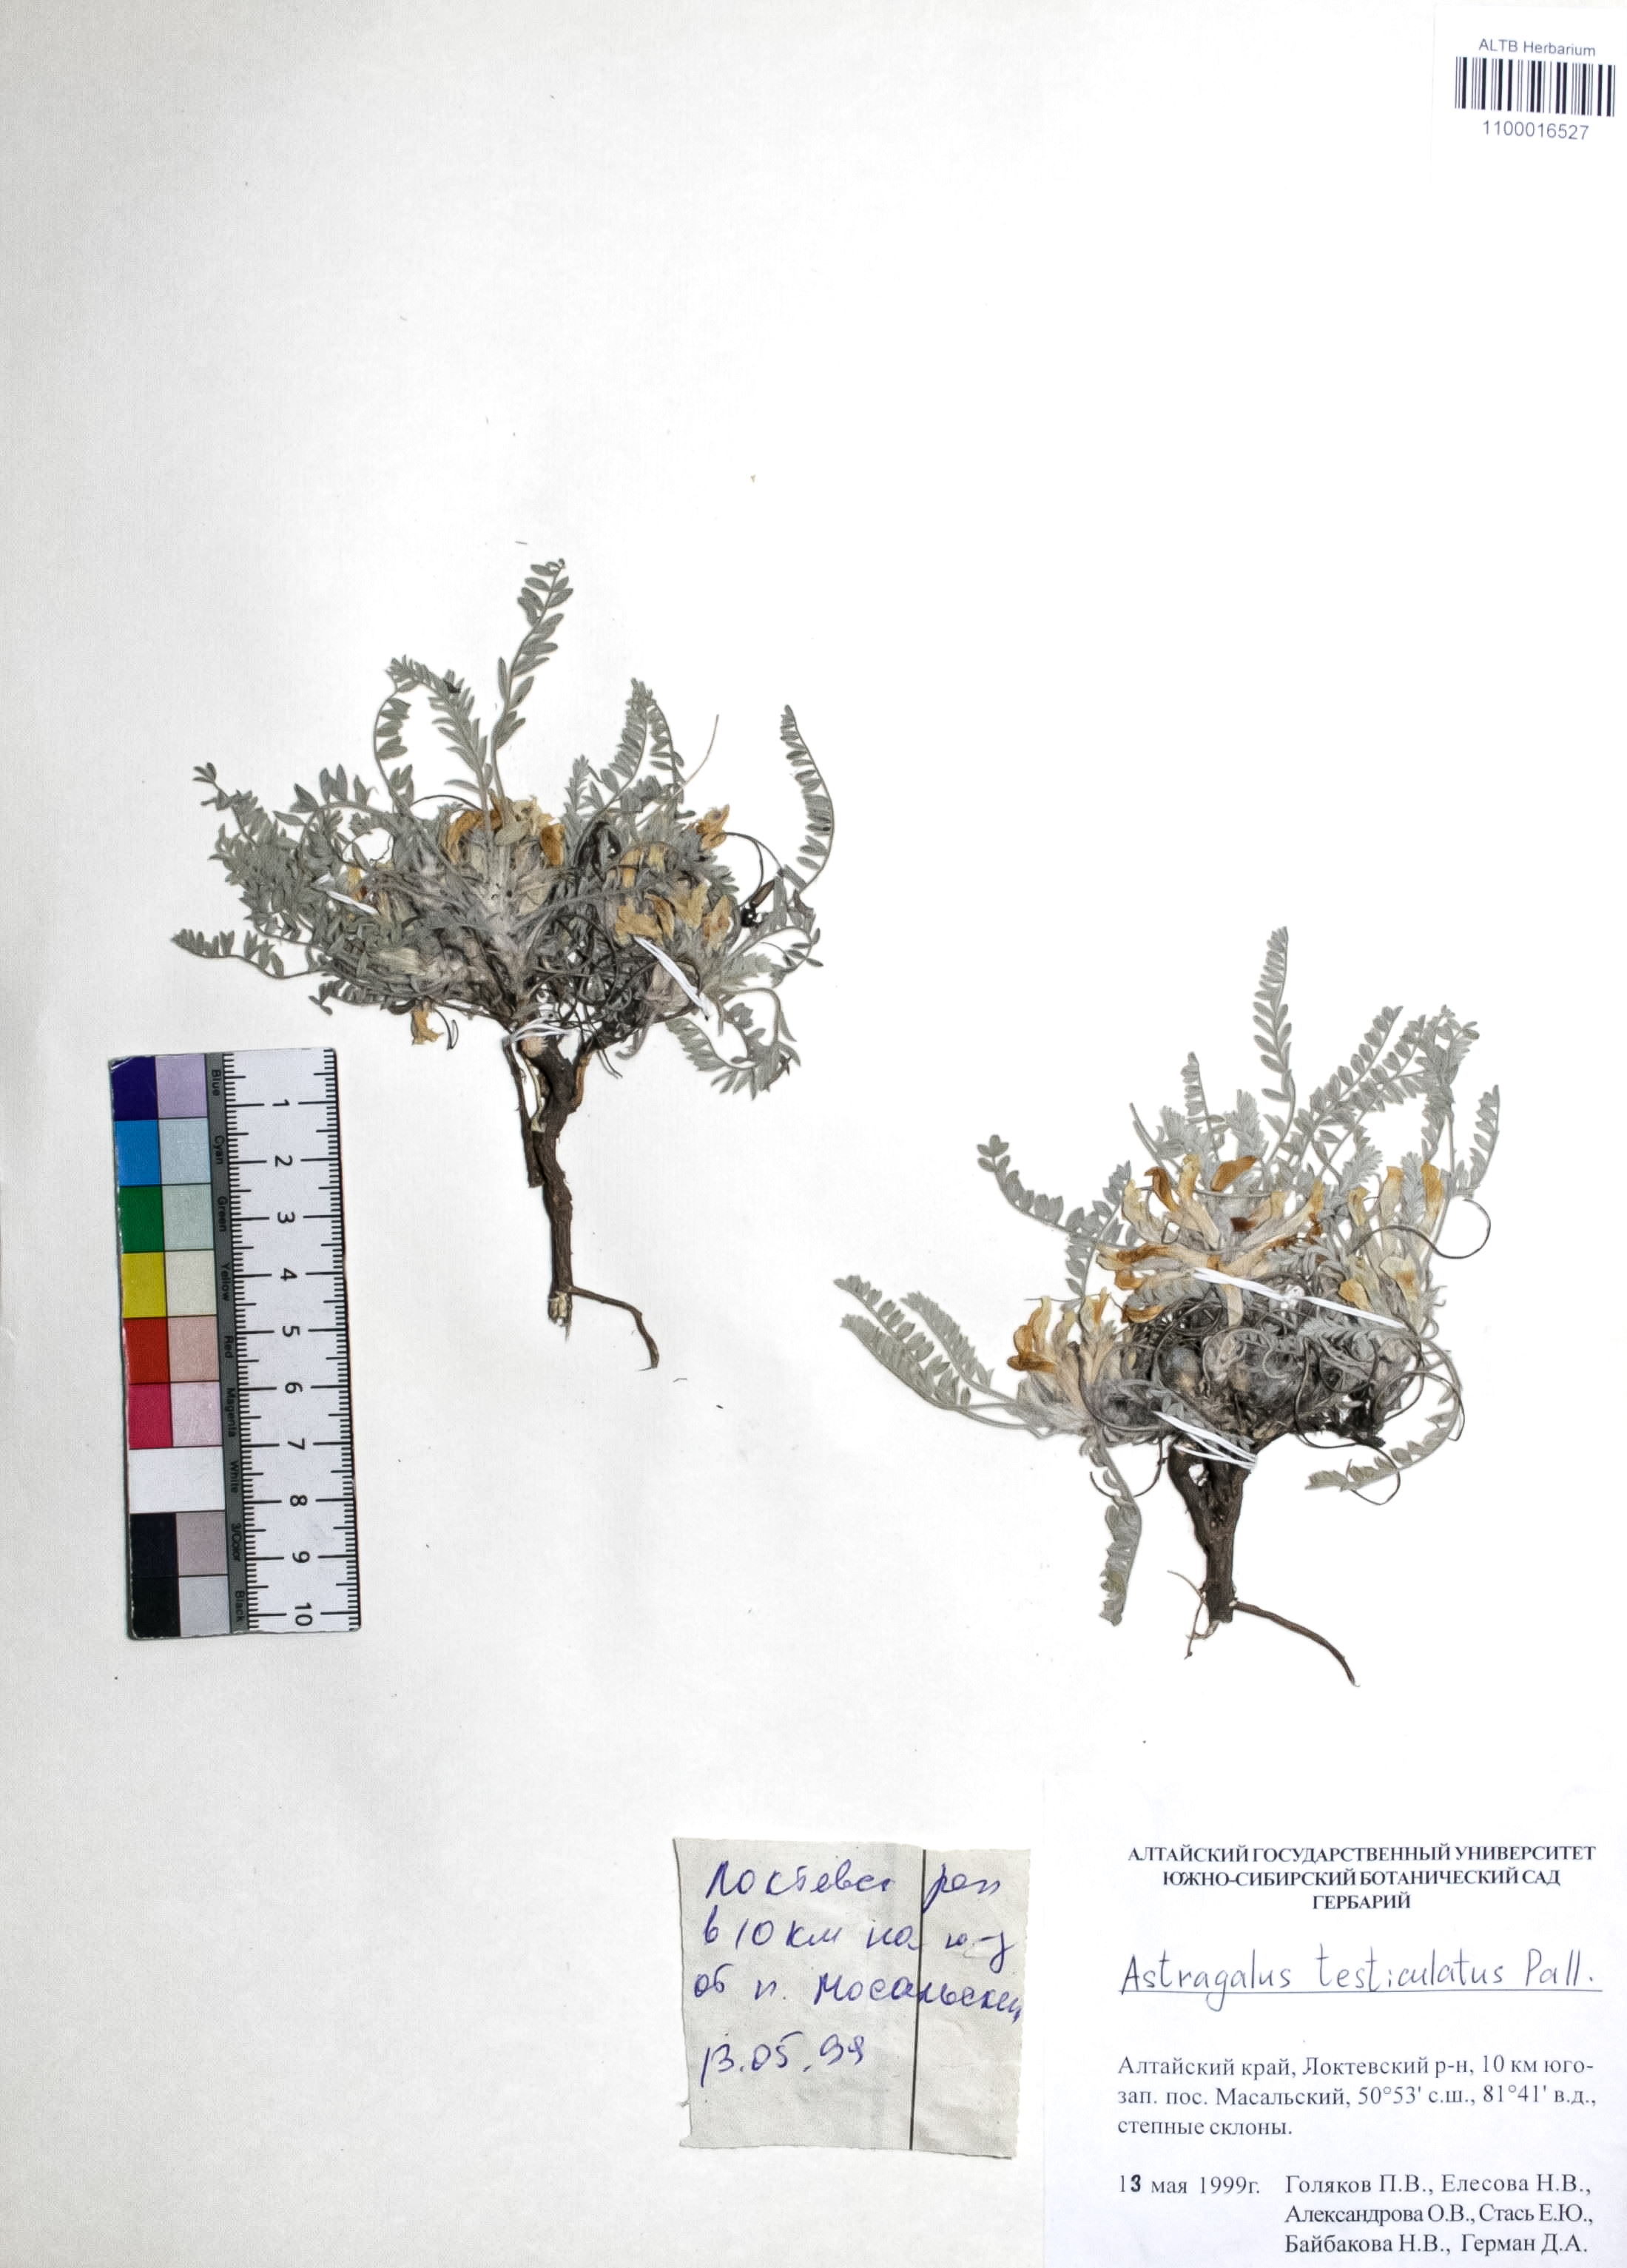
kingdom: Plantae
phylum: Tracheophyta
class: Magnoliopsida
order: Fabales
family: Fabaceae
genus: Astragalus
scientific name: Astragalus testiculatus
